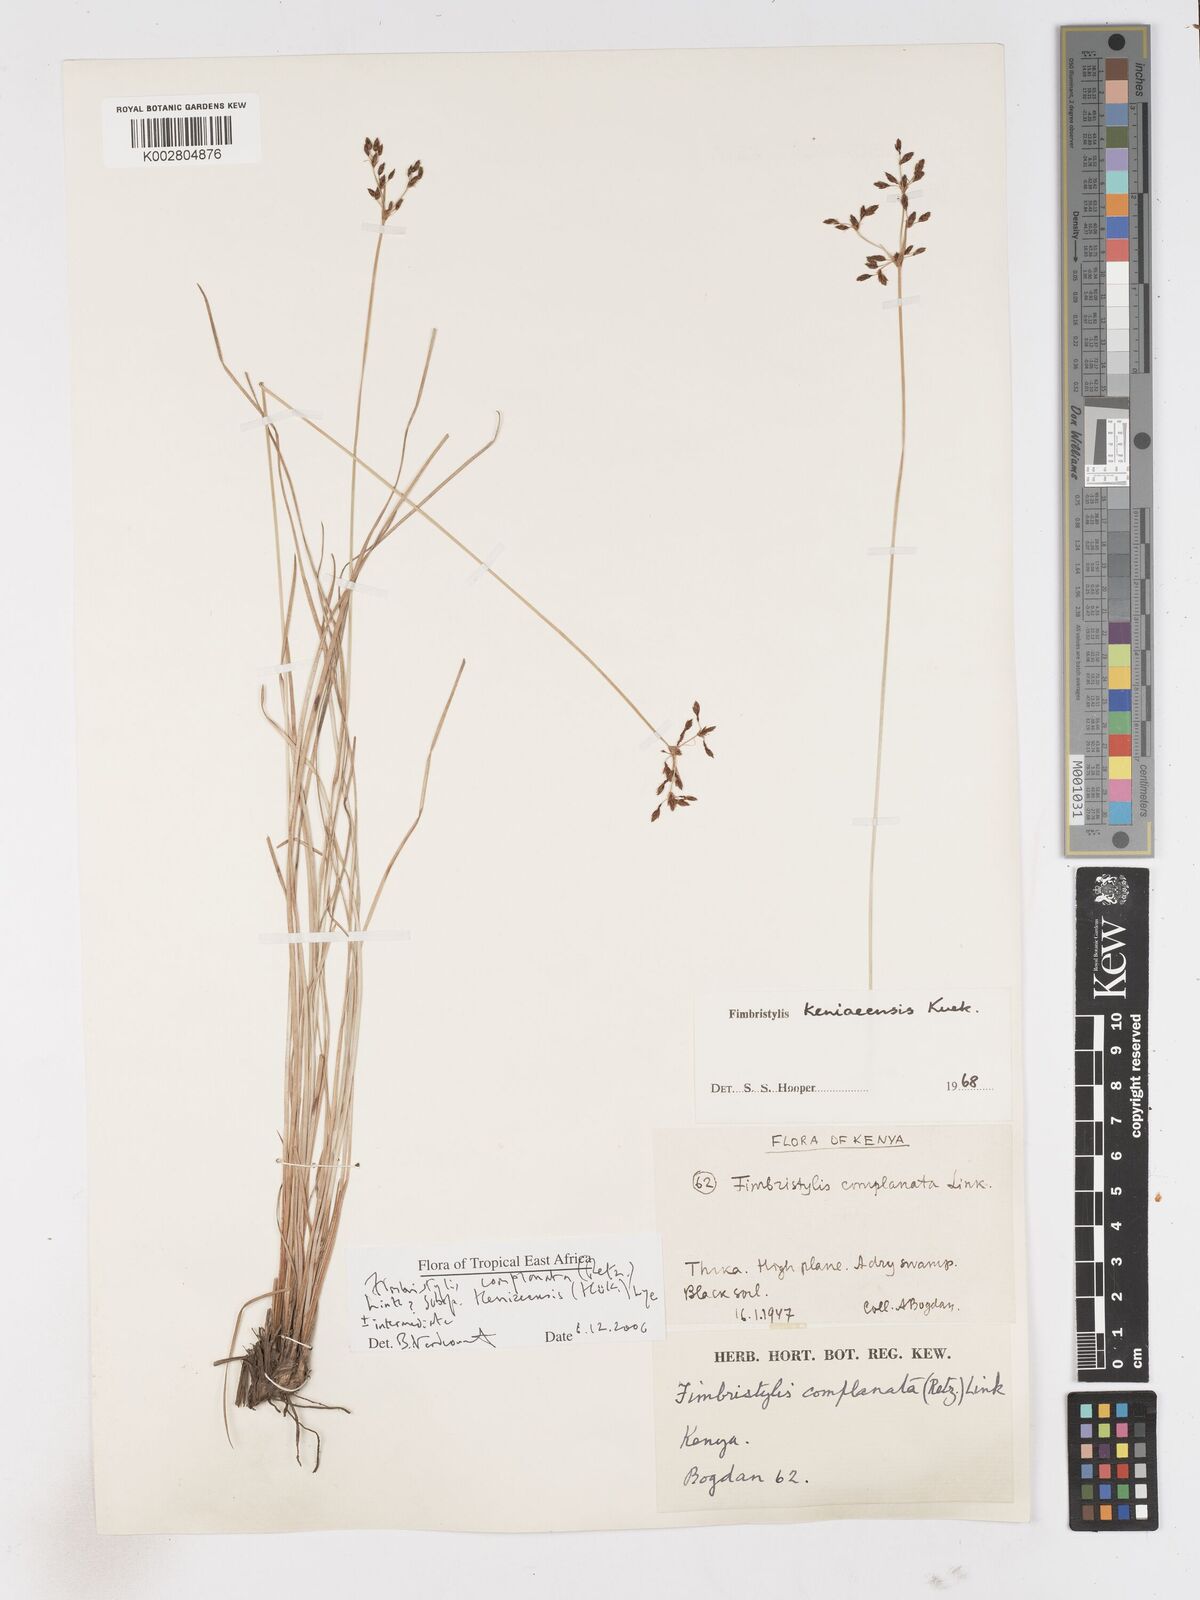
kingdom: Plantae
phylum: Tracheophyta
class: Liliopsida
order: Poales
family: Cyperaceae
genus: Fimbristylis
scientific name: Fimbristylis complanata
